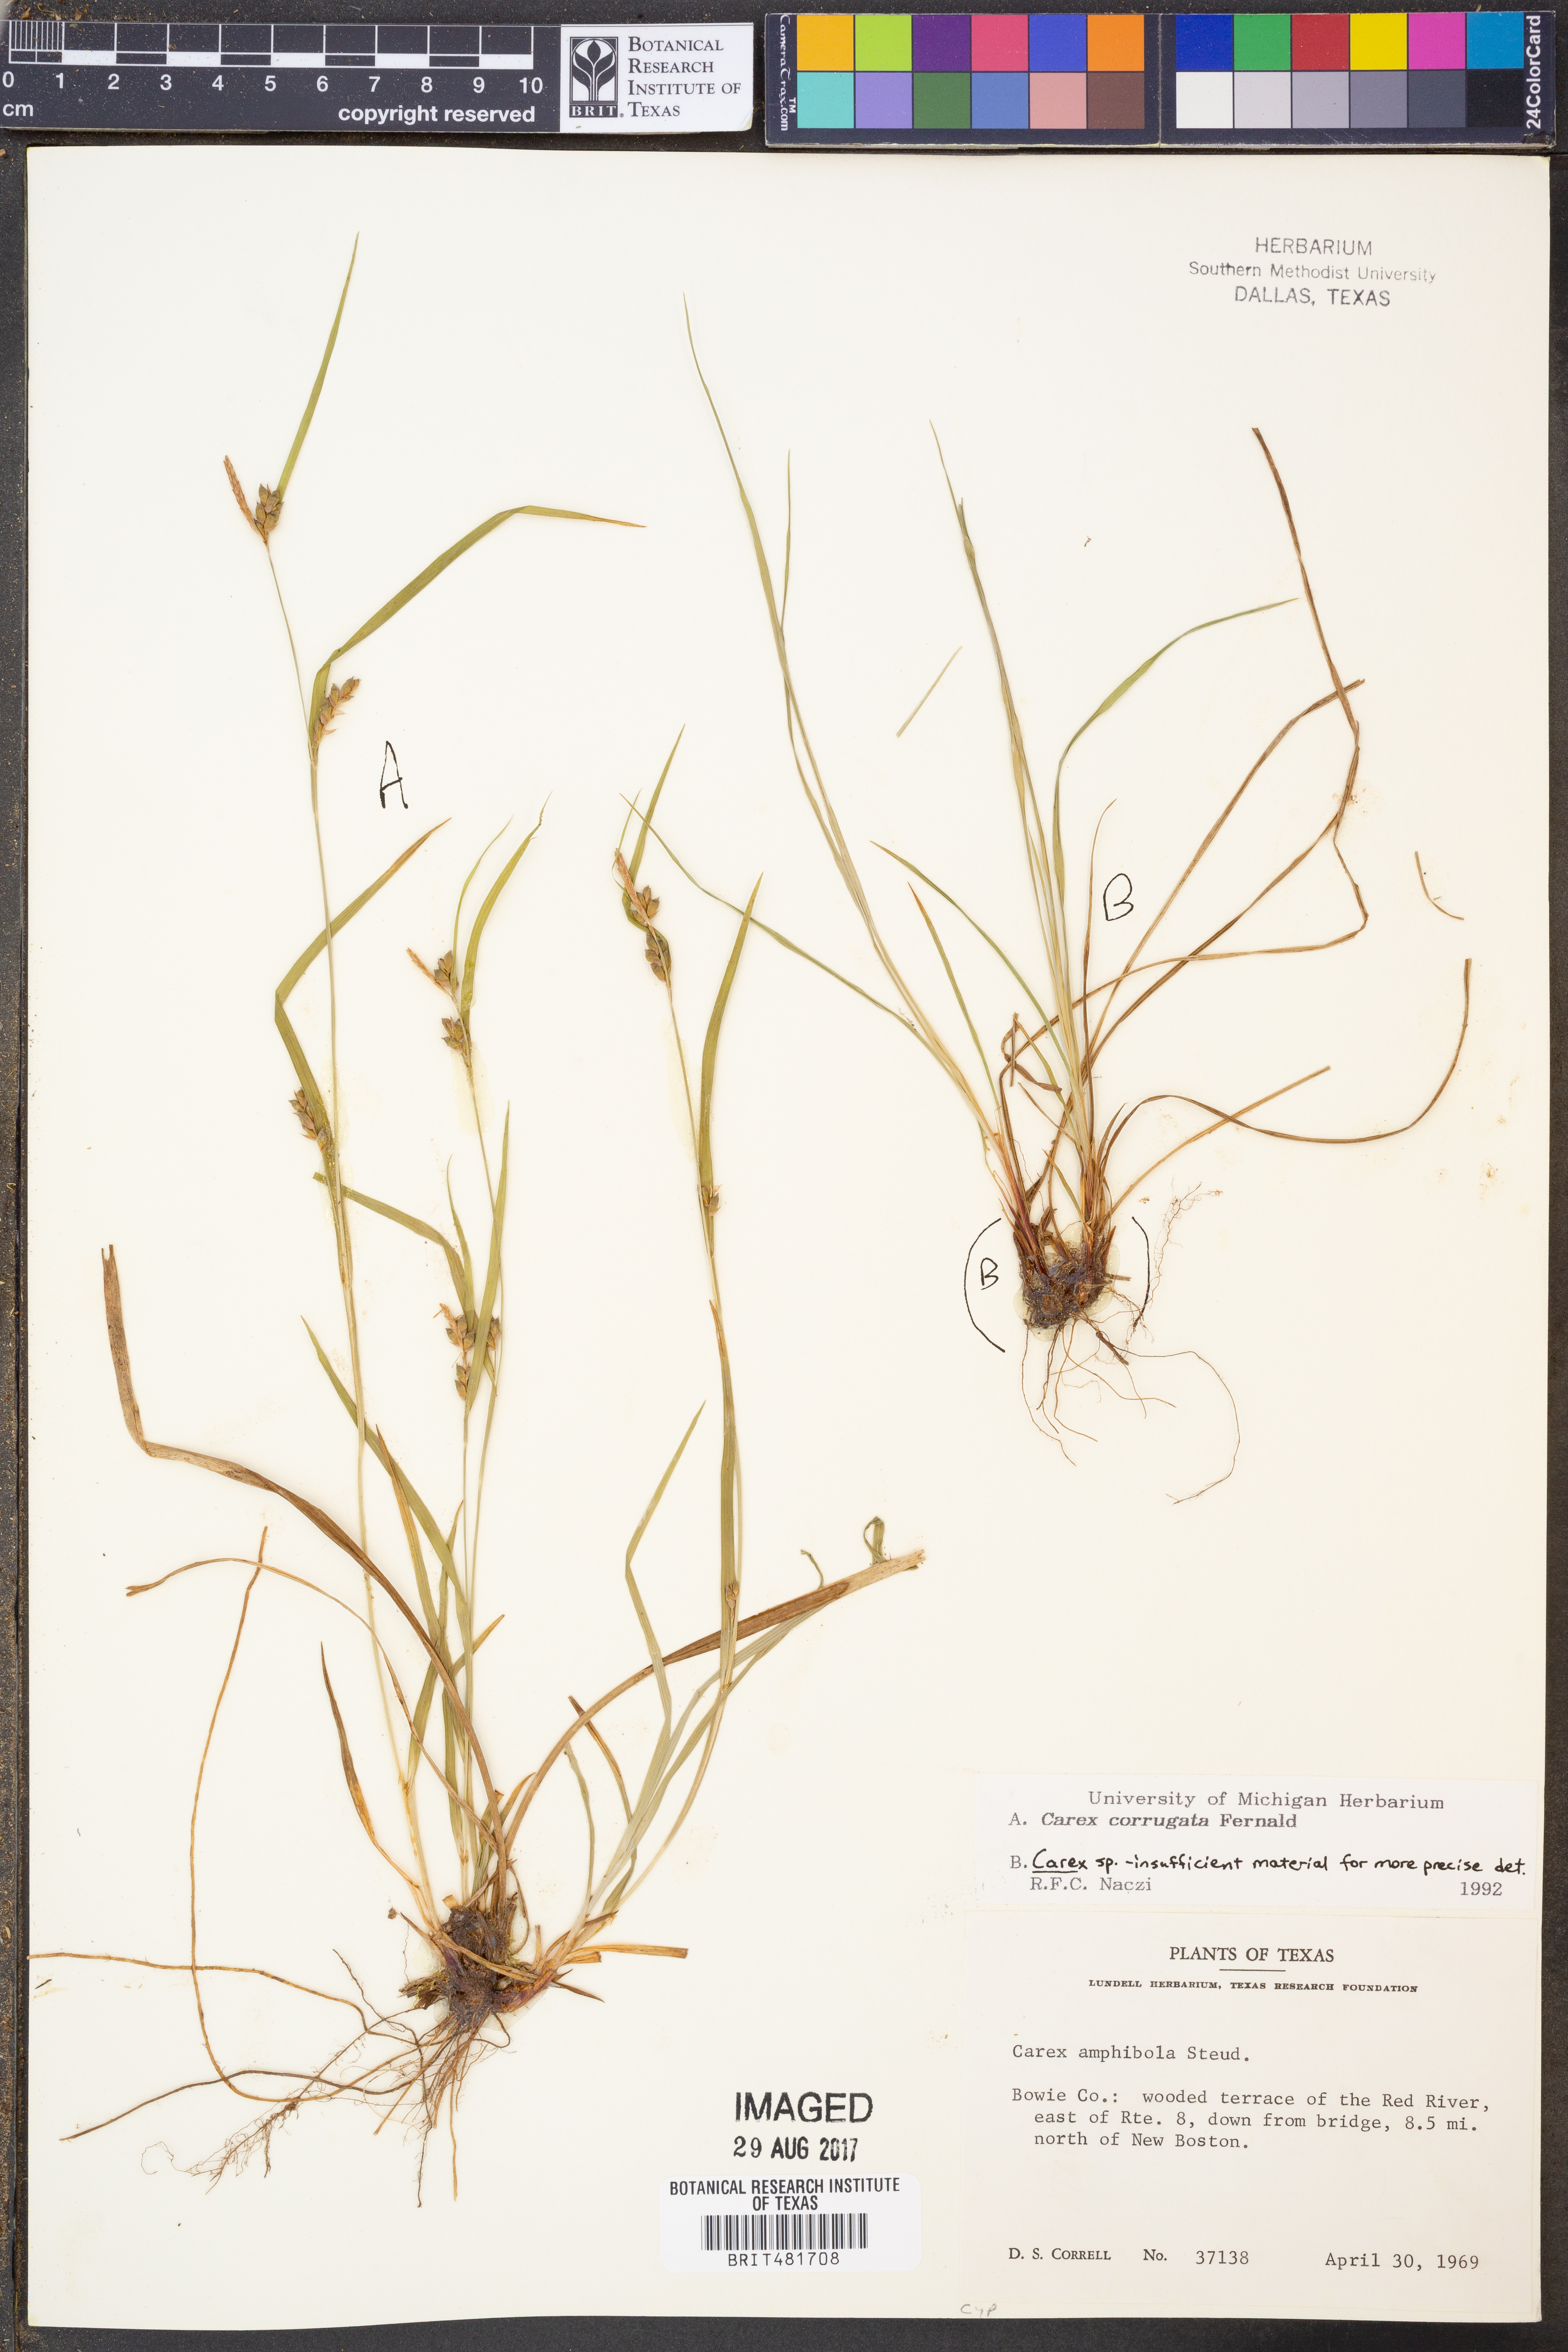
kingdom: Plantae
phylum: Tracheophyta
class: Liliopsida
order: Poales
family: Cyperaceae
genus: Carex
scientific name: Carex corrugata
